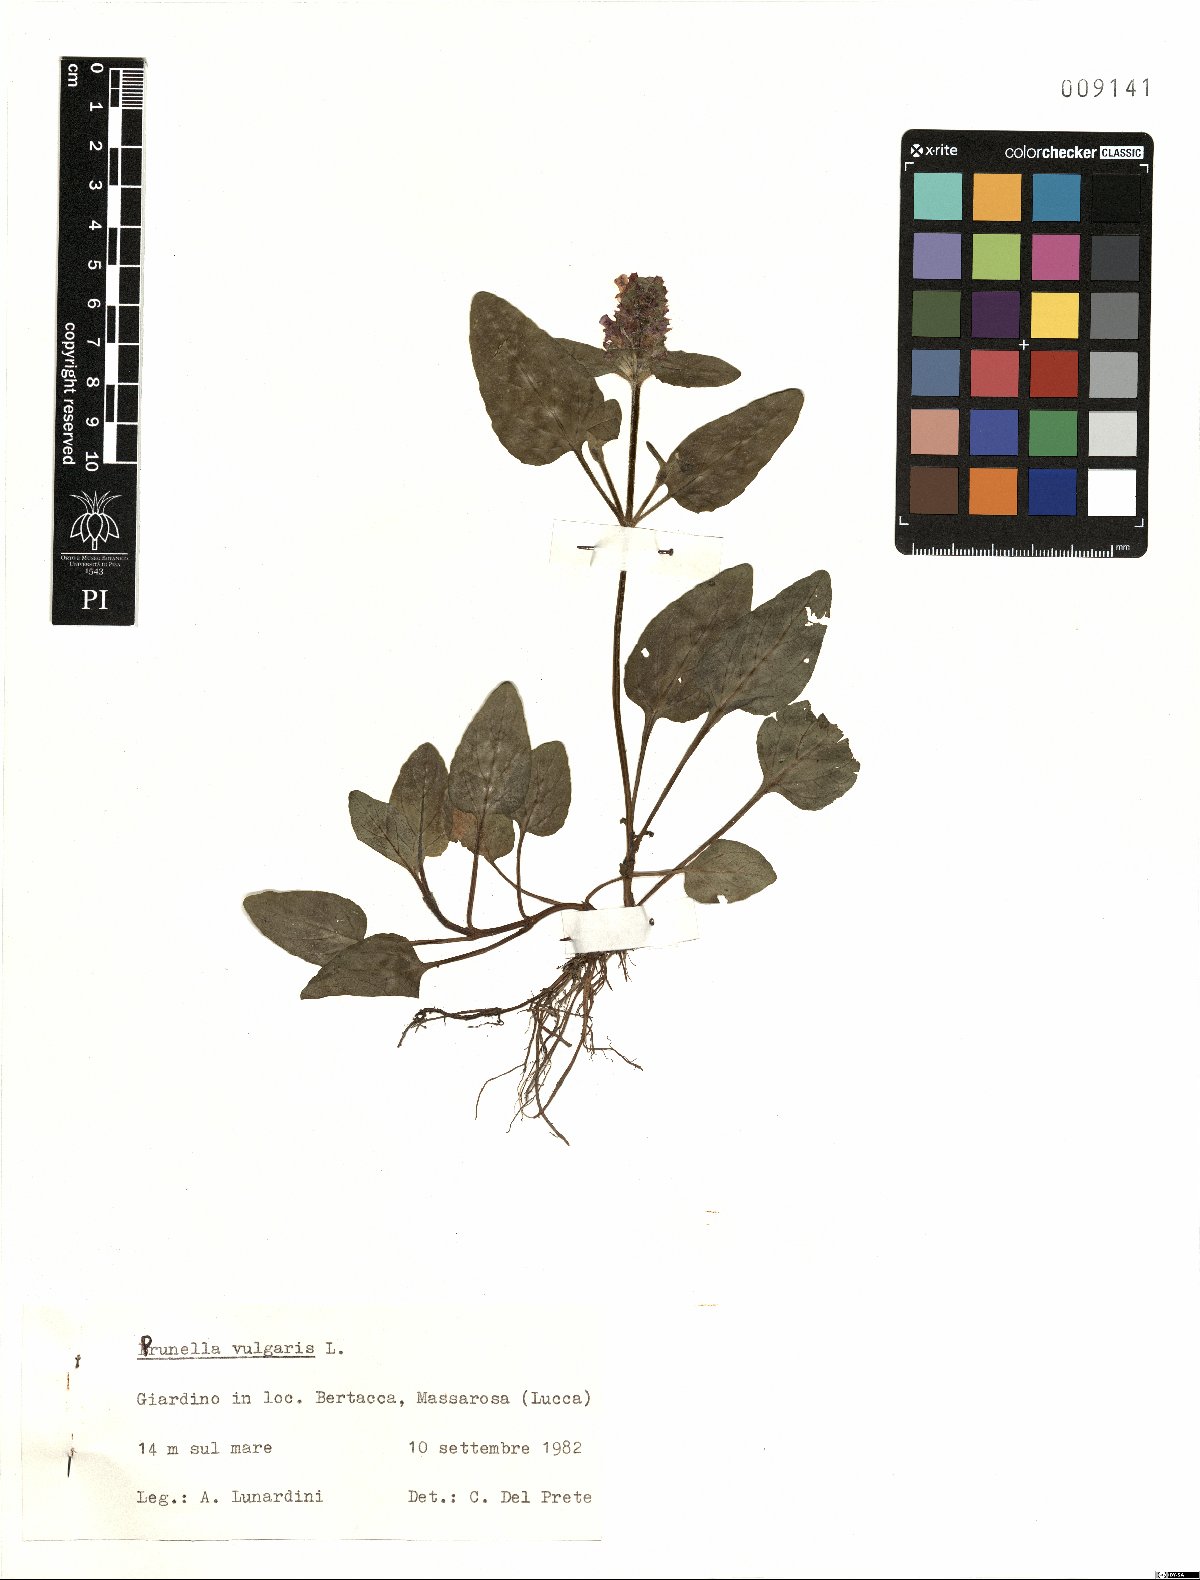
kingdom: Plantae
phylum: Tracheophyta
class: Magnoliopsida
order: Lamiales
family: Lamiaceae
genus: Prunella
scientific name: Prunella vulgaris
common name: Heal-all
